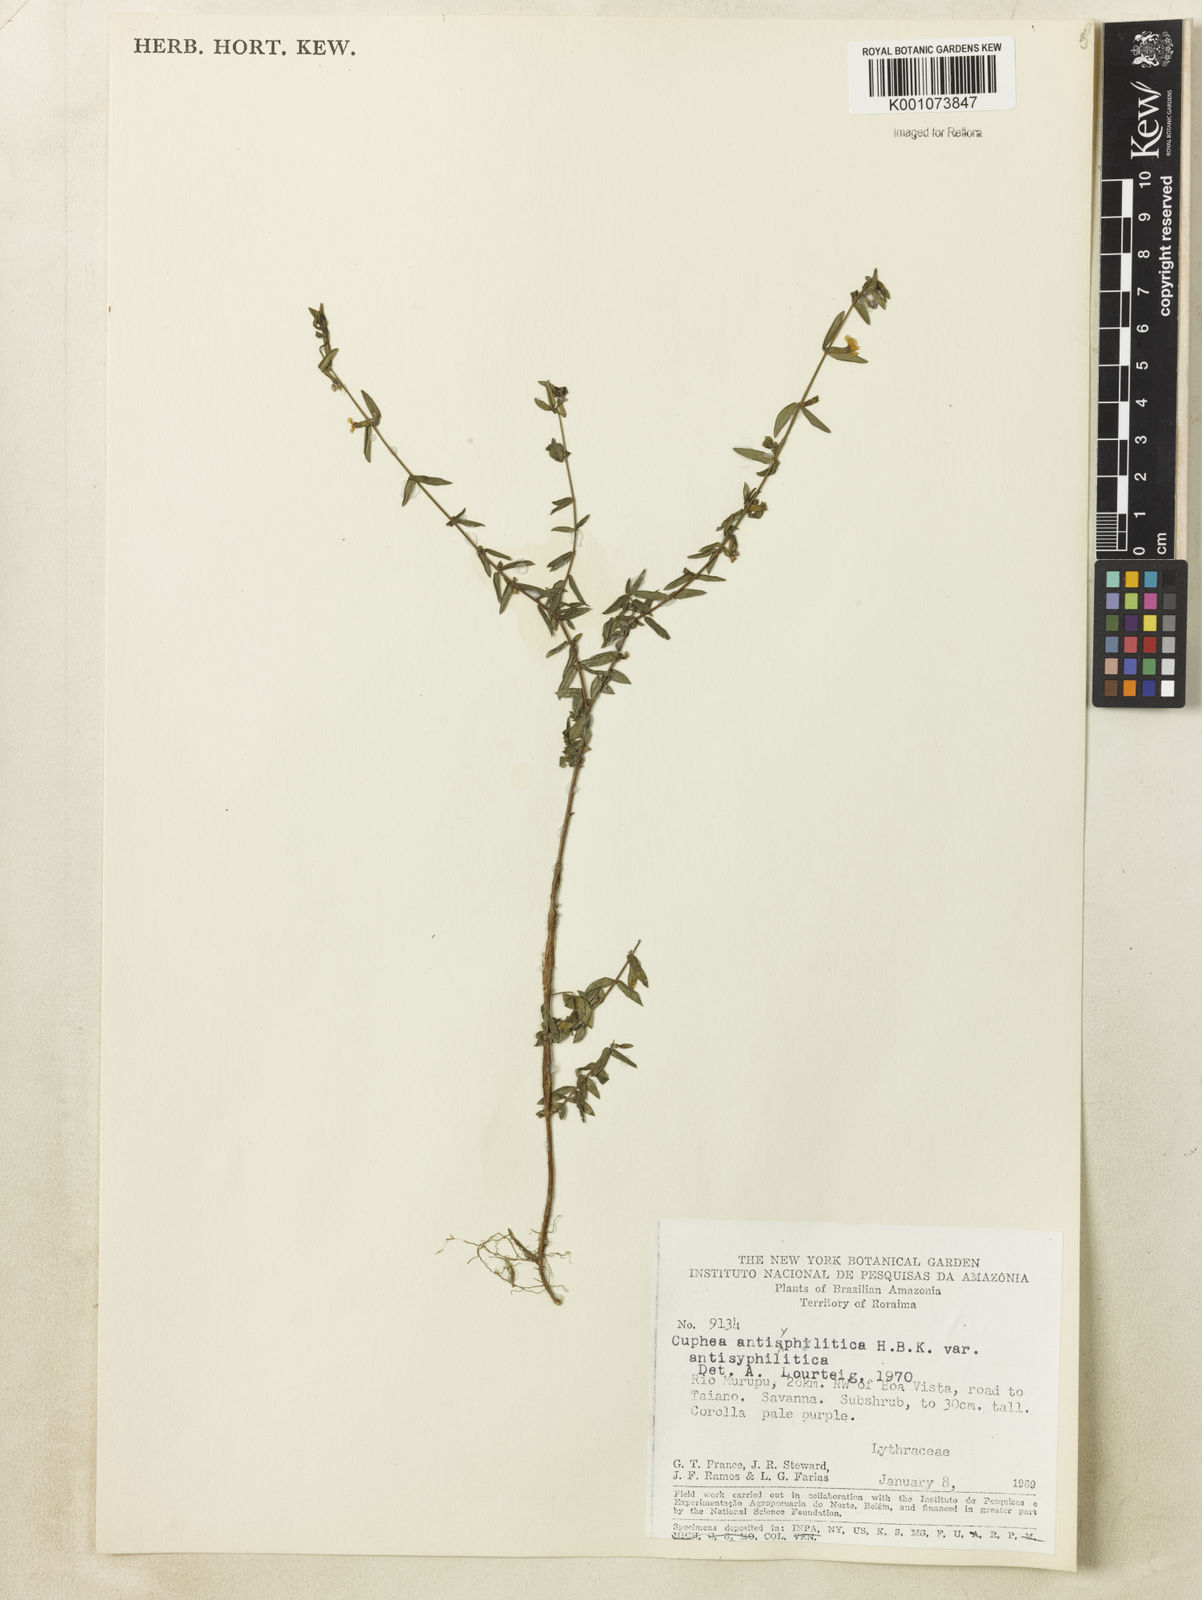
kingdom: Plantae
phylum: Tracheophyta
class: Magnoliopsida
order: Myrtales
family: Lythraceae
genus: Cuphea
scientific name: Cuphea antisyphilitica
